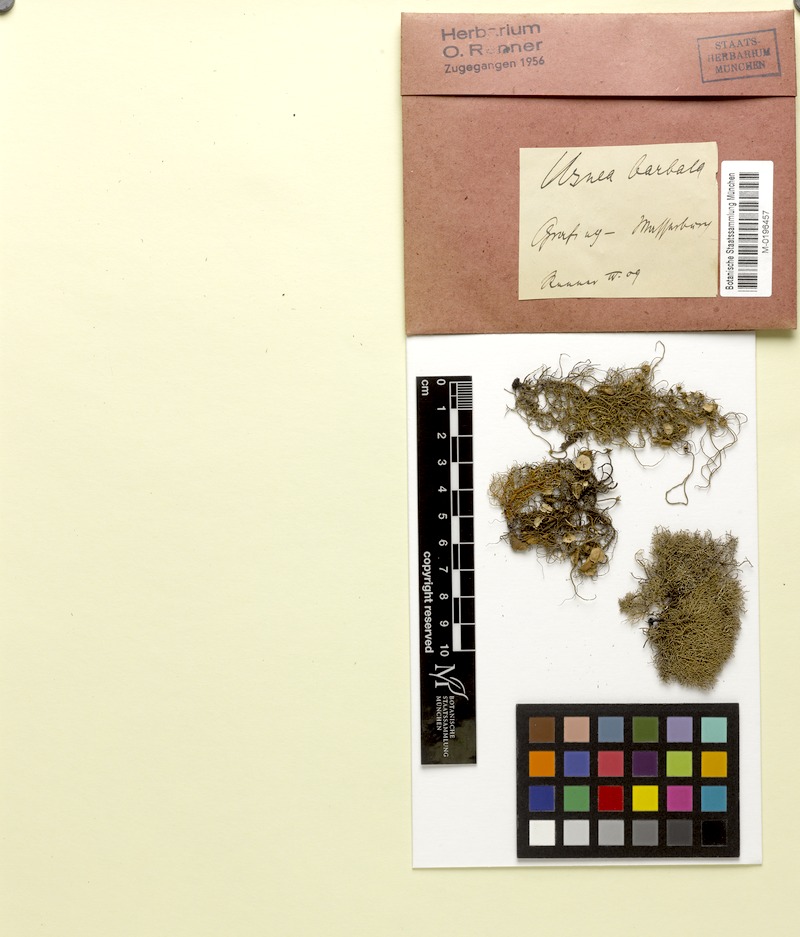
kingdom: Fungi
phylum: Ascomycota
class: Lecanoromycetes
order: Lecanorales
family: Parmeliaceae
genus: Usnea
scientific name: Usnea barbata
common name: Old man's beard lichen
